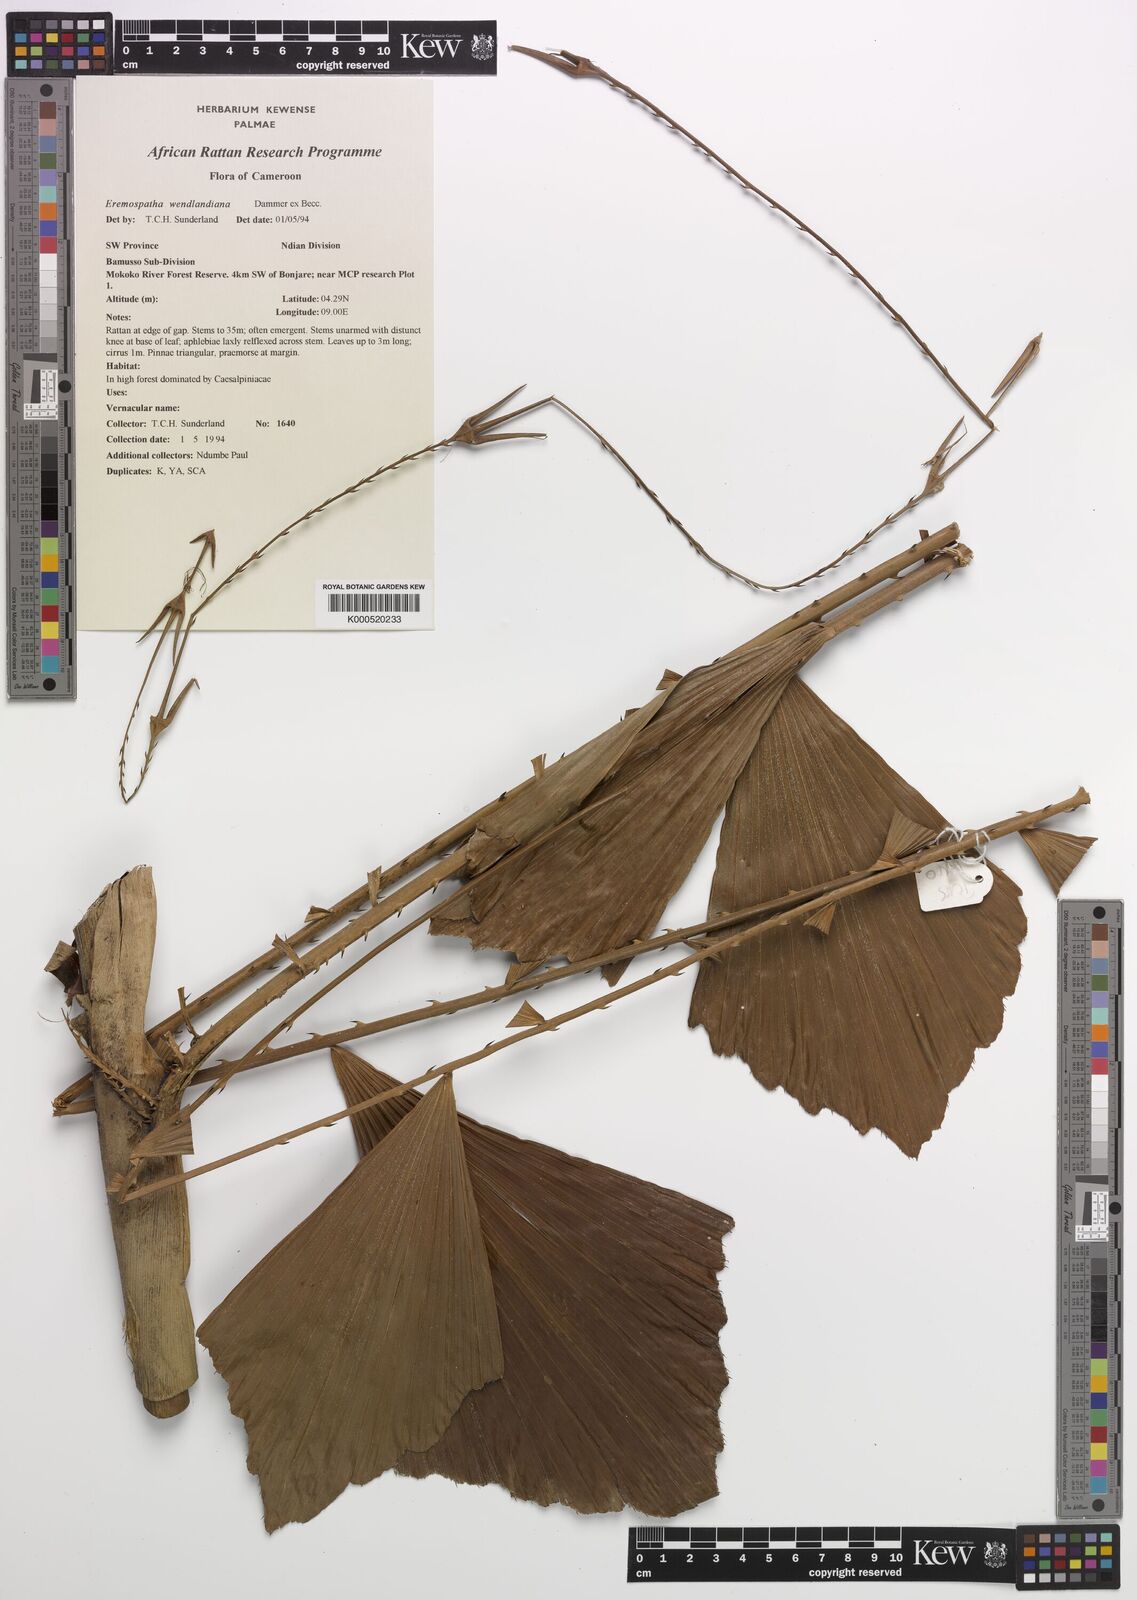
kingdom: Plantae
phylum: Tracheophyta
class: Liliopsida
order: Arecales
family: Arecaceae
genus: Eremospatha
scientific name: Eremospatha wendlandiana
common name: Rattan
